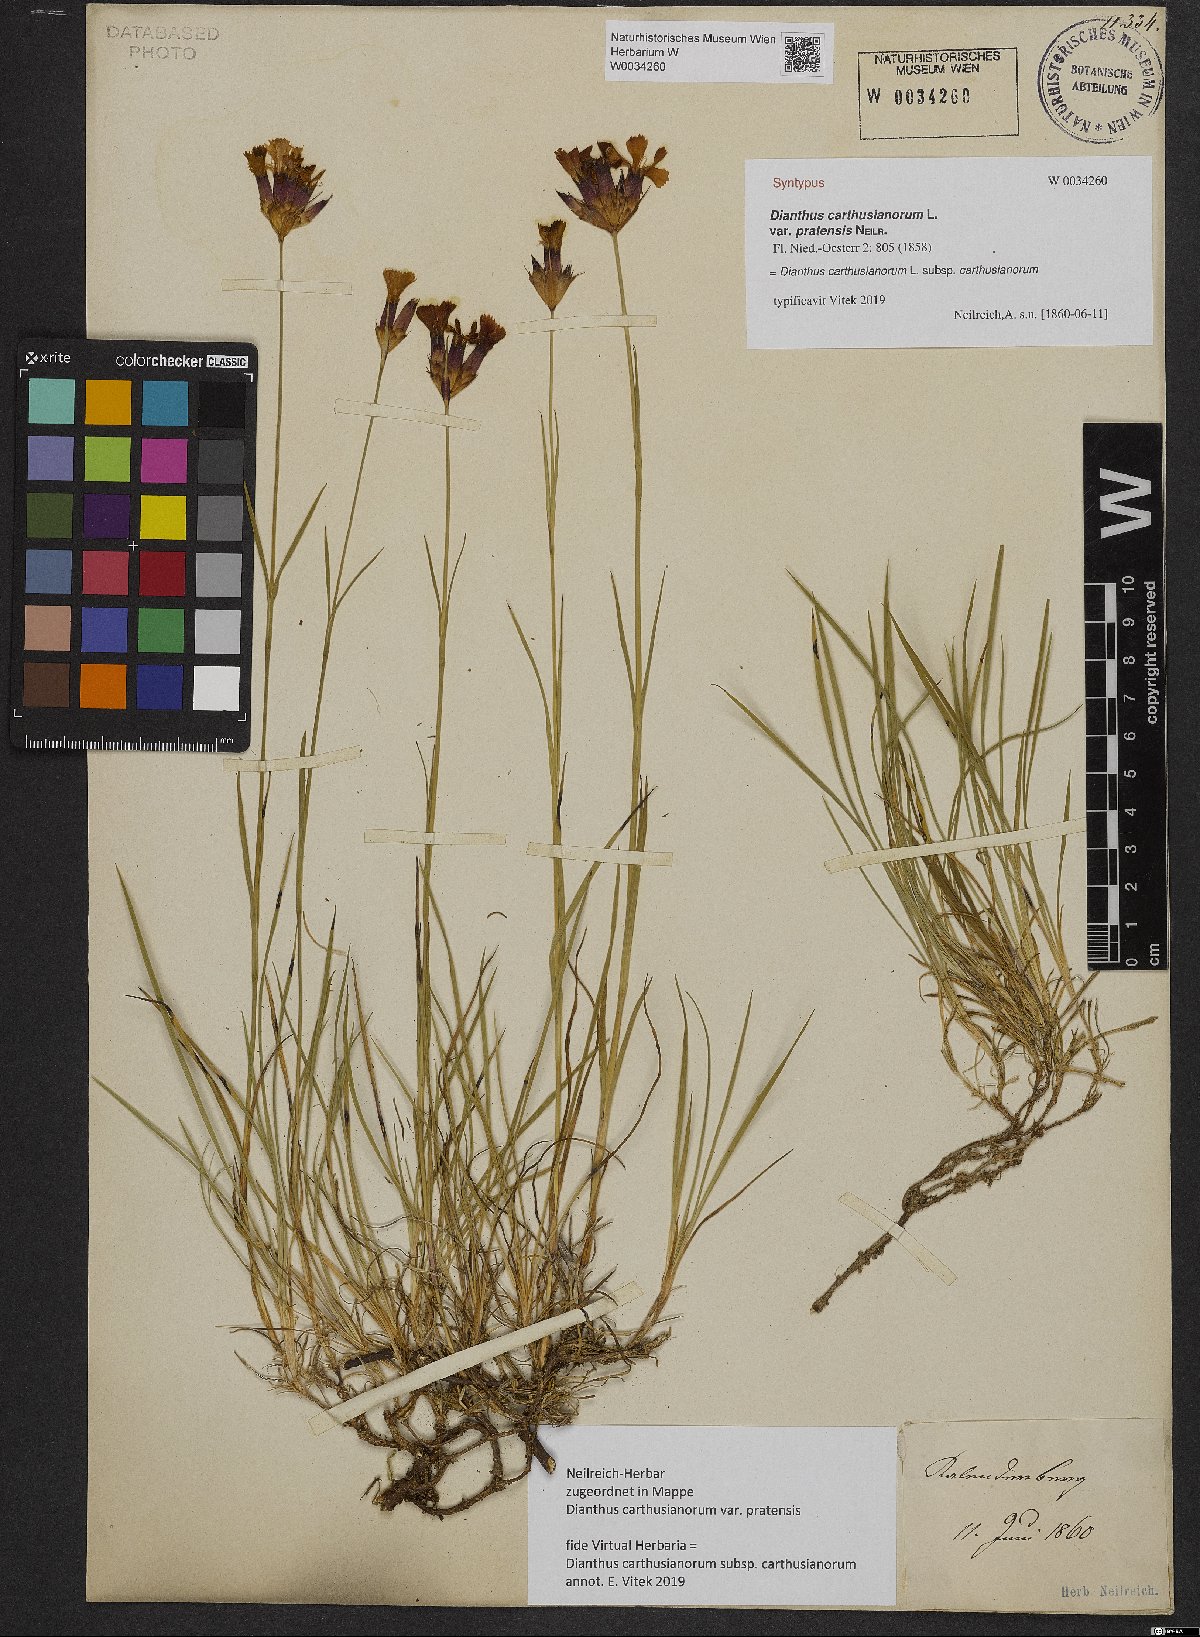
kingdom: Plantae
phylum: Tracheophyta
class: Magnoliopsida
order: Caryophyllales
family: Caryophyllaceae
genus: Dianthus
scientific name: Dianthus carthusianorum
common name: Carthusian pink
